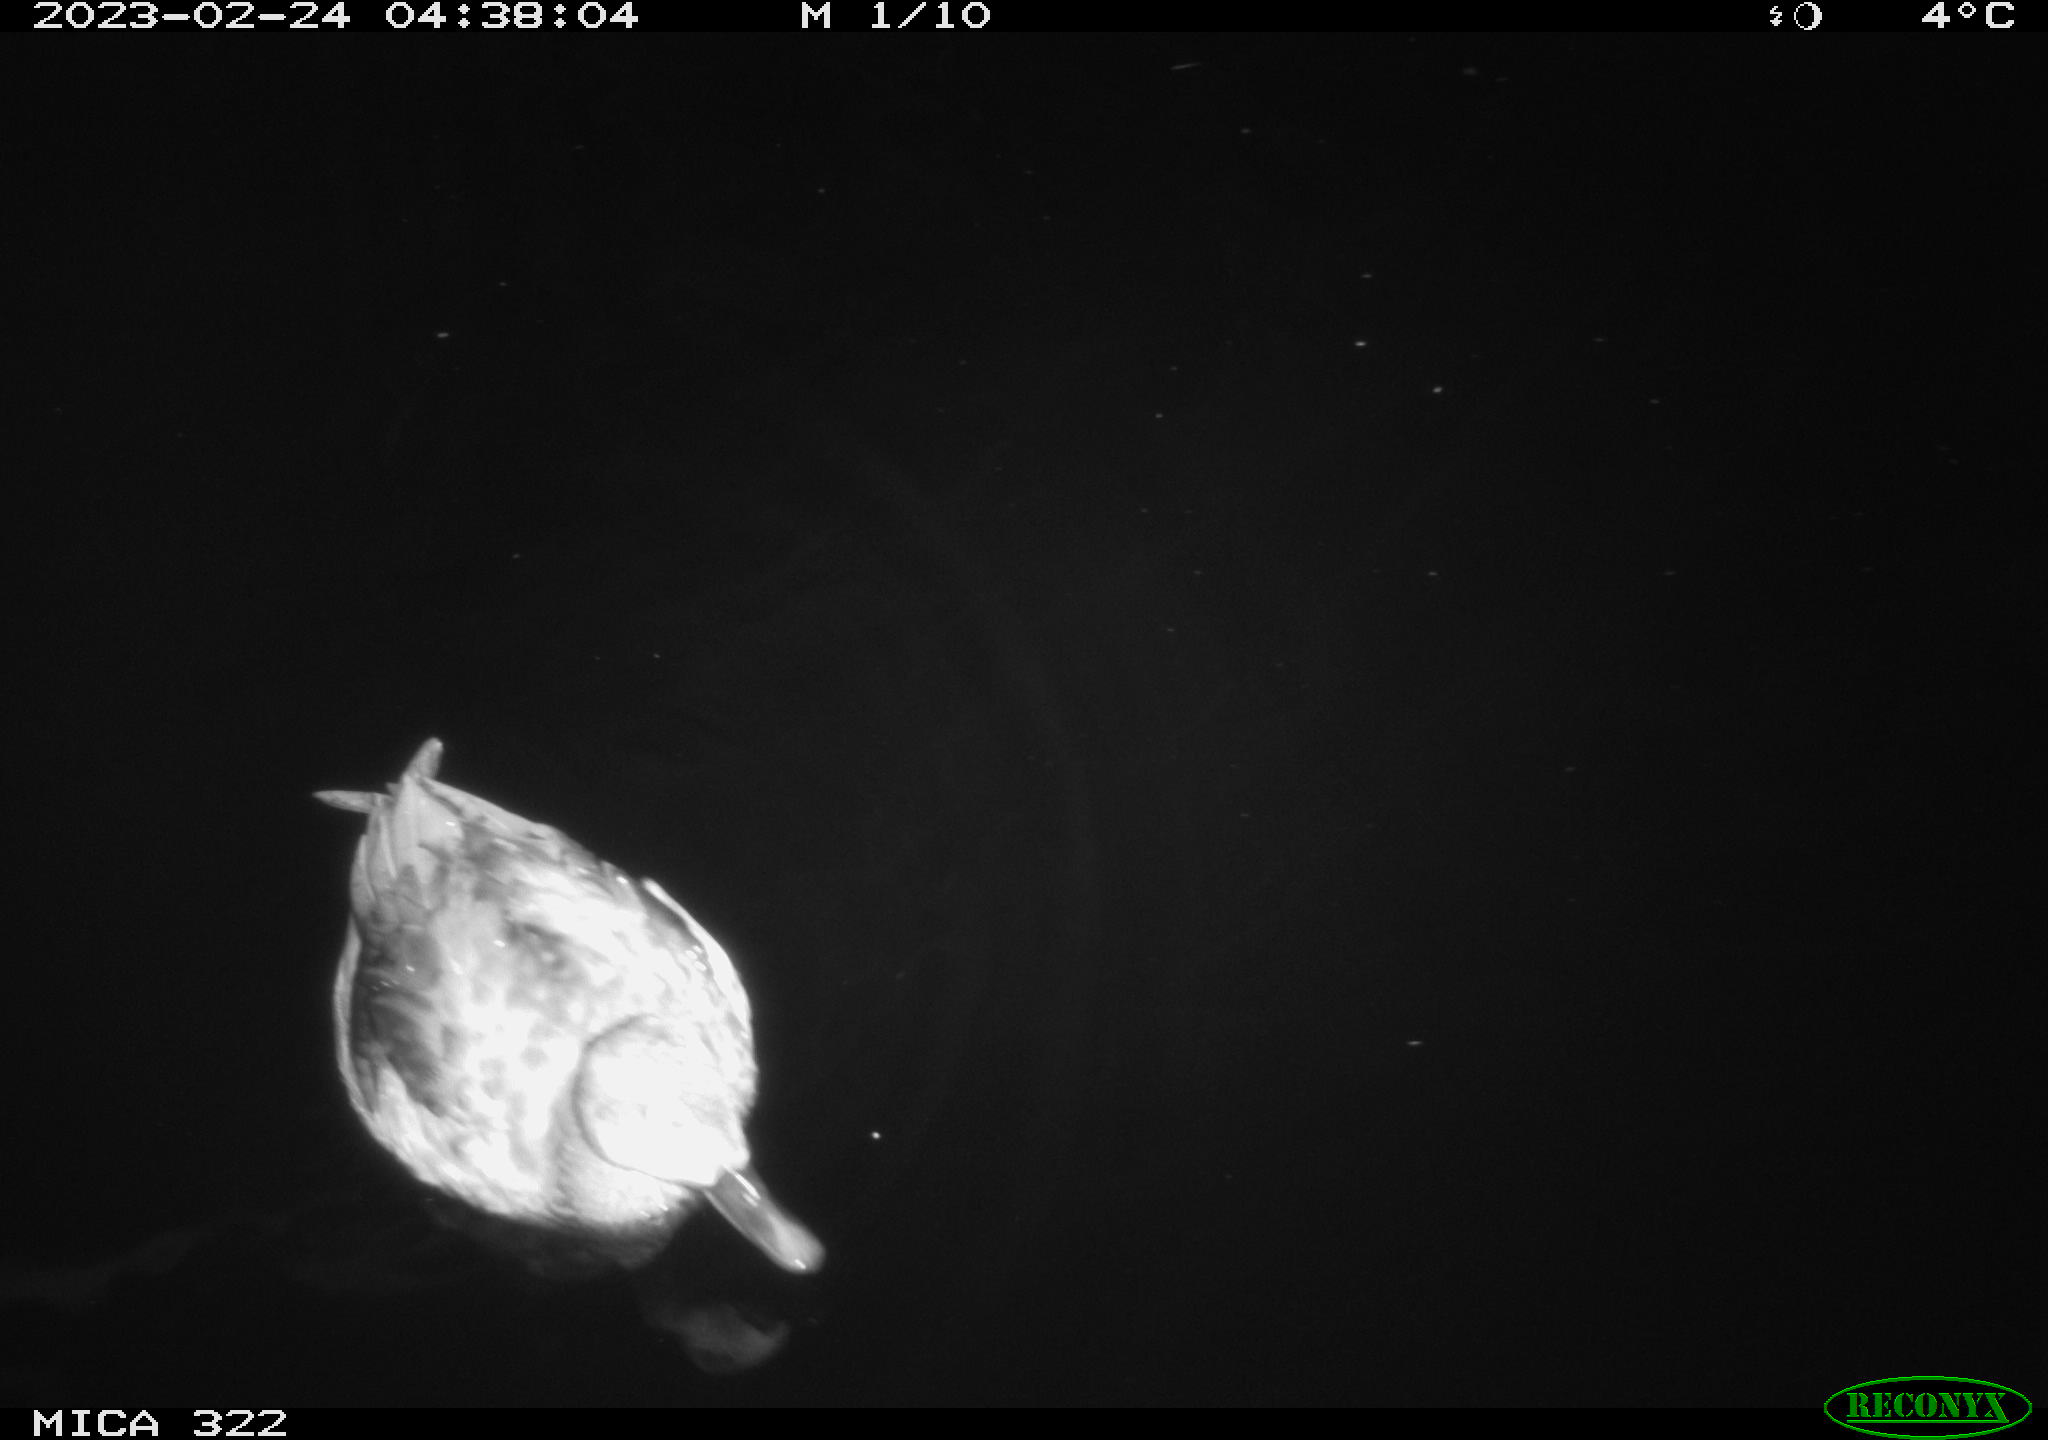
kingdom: Animalia
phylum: Chordata
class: Aves
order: Anseriformes
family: Anatidae
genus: Anas
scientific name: Anas
